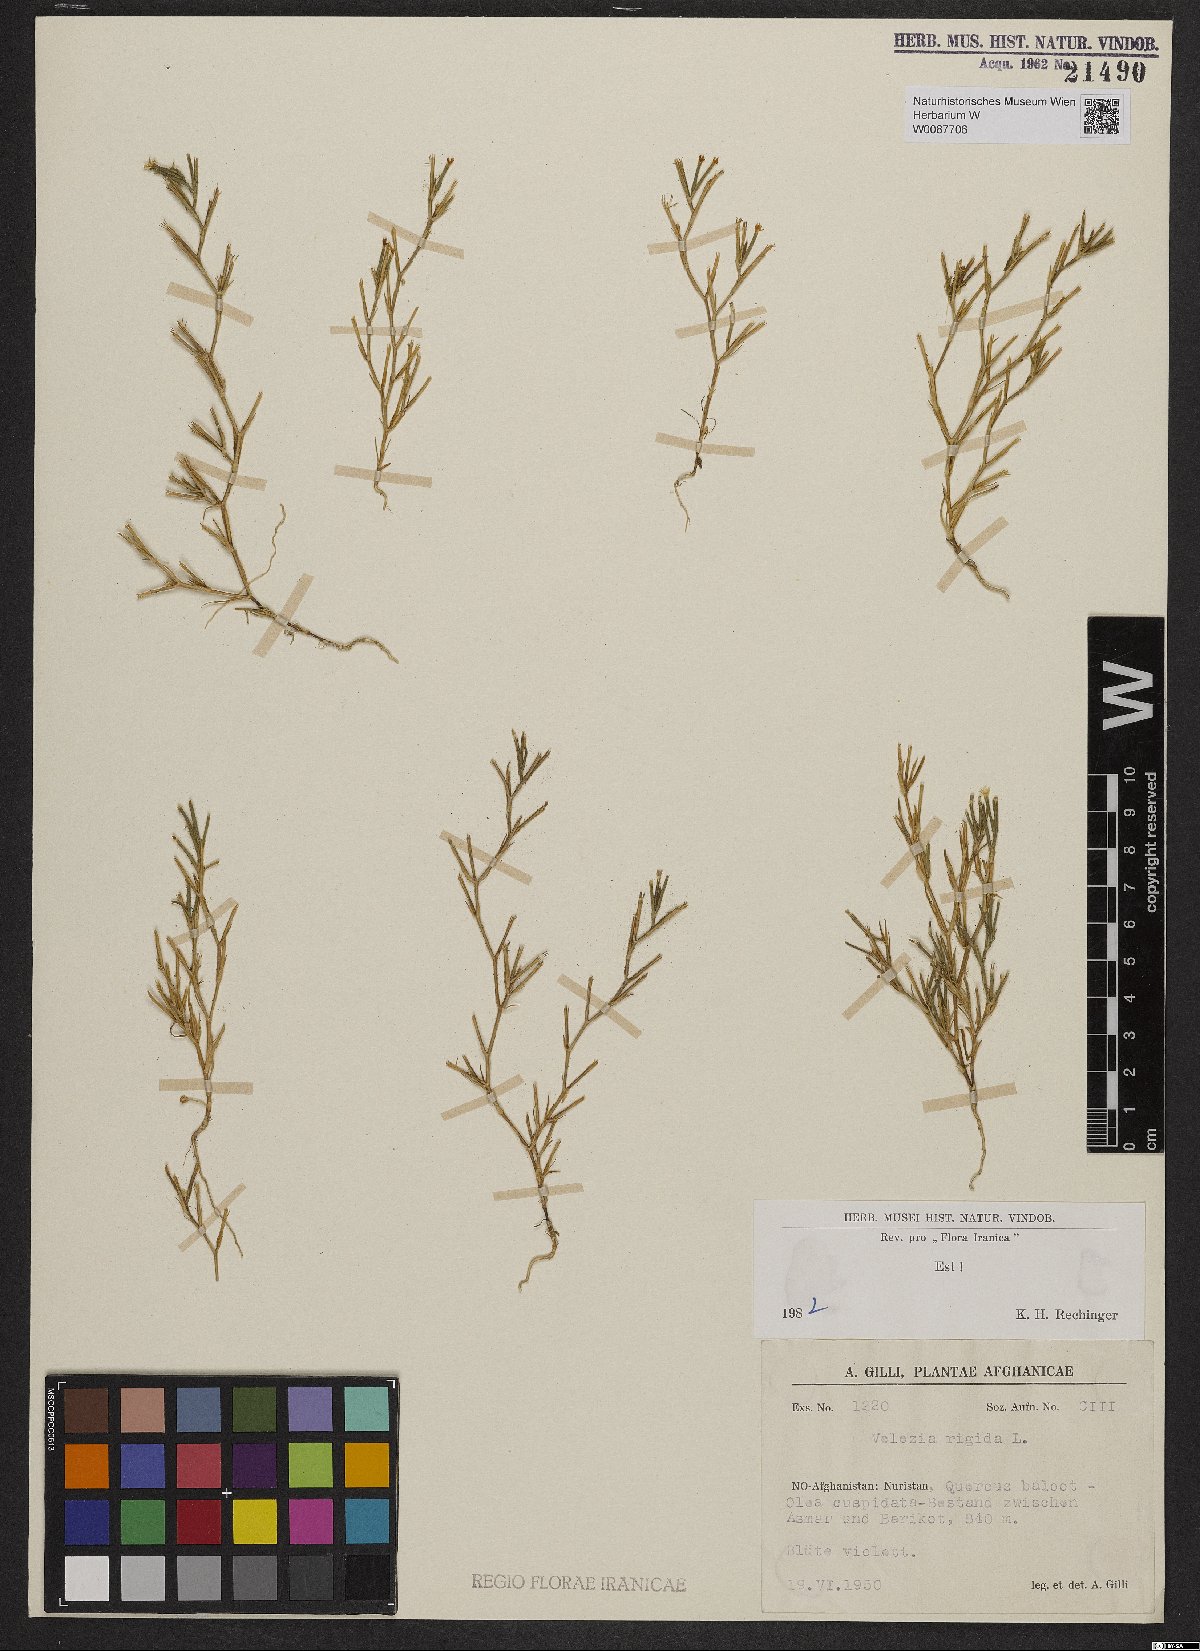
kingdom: Plantae
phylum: Tracheophyta
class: Magnoliopsida
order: Caryophyllales
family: Caryophyllaceae
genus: Dianthus
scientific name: Dianthus nudiflorus
